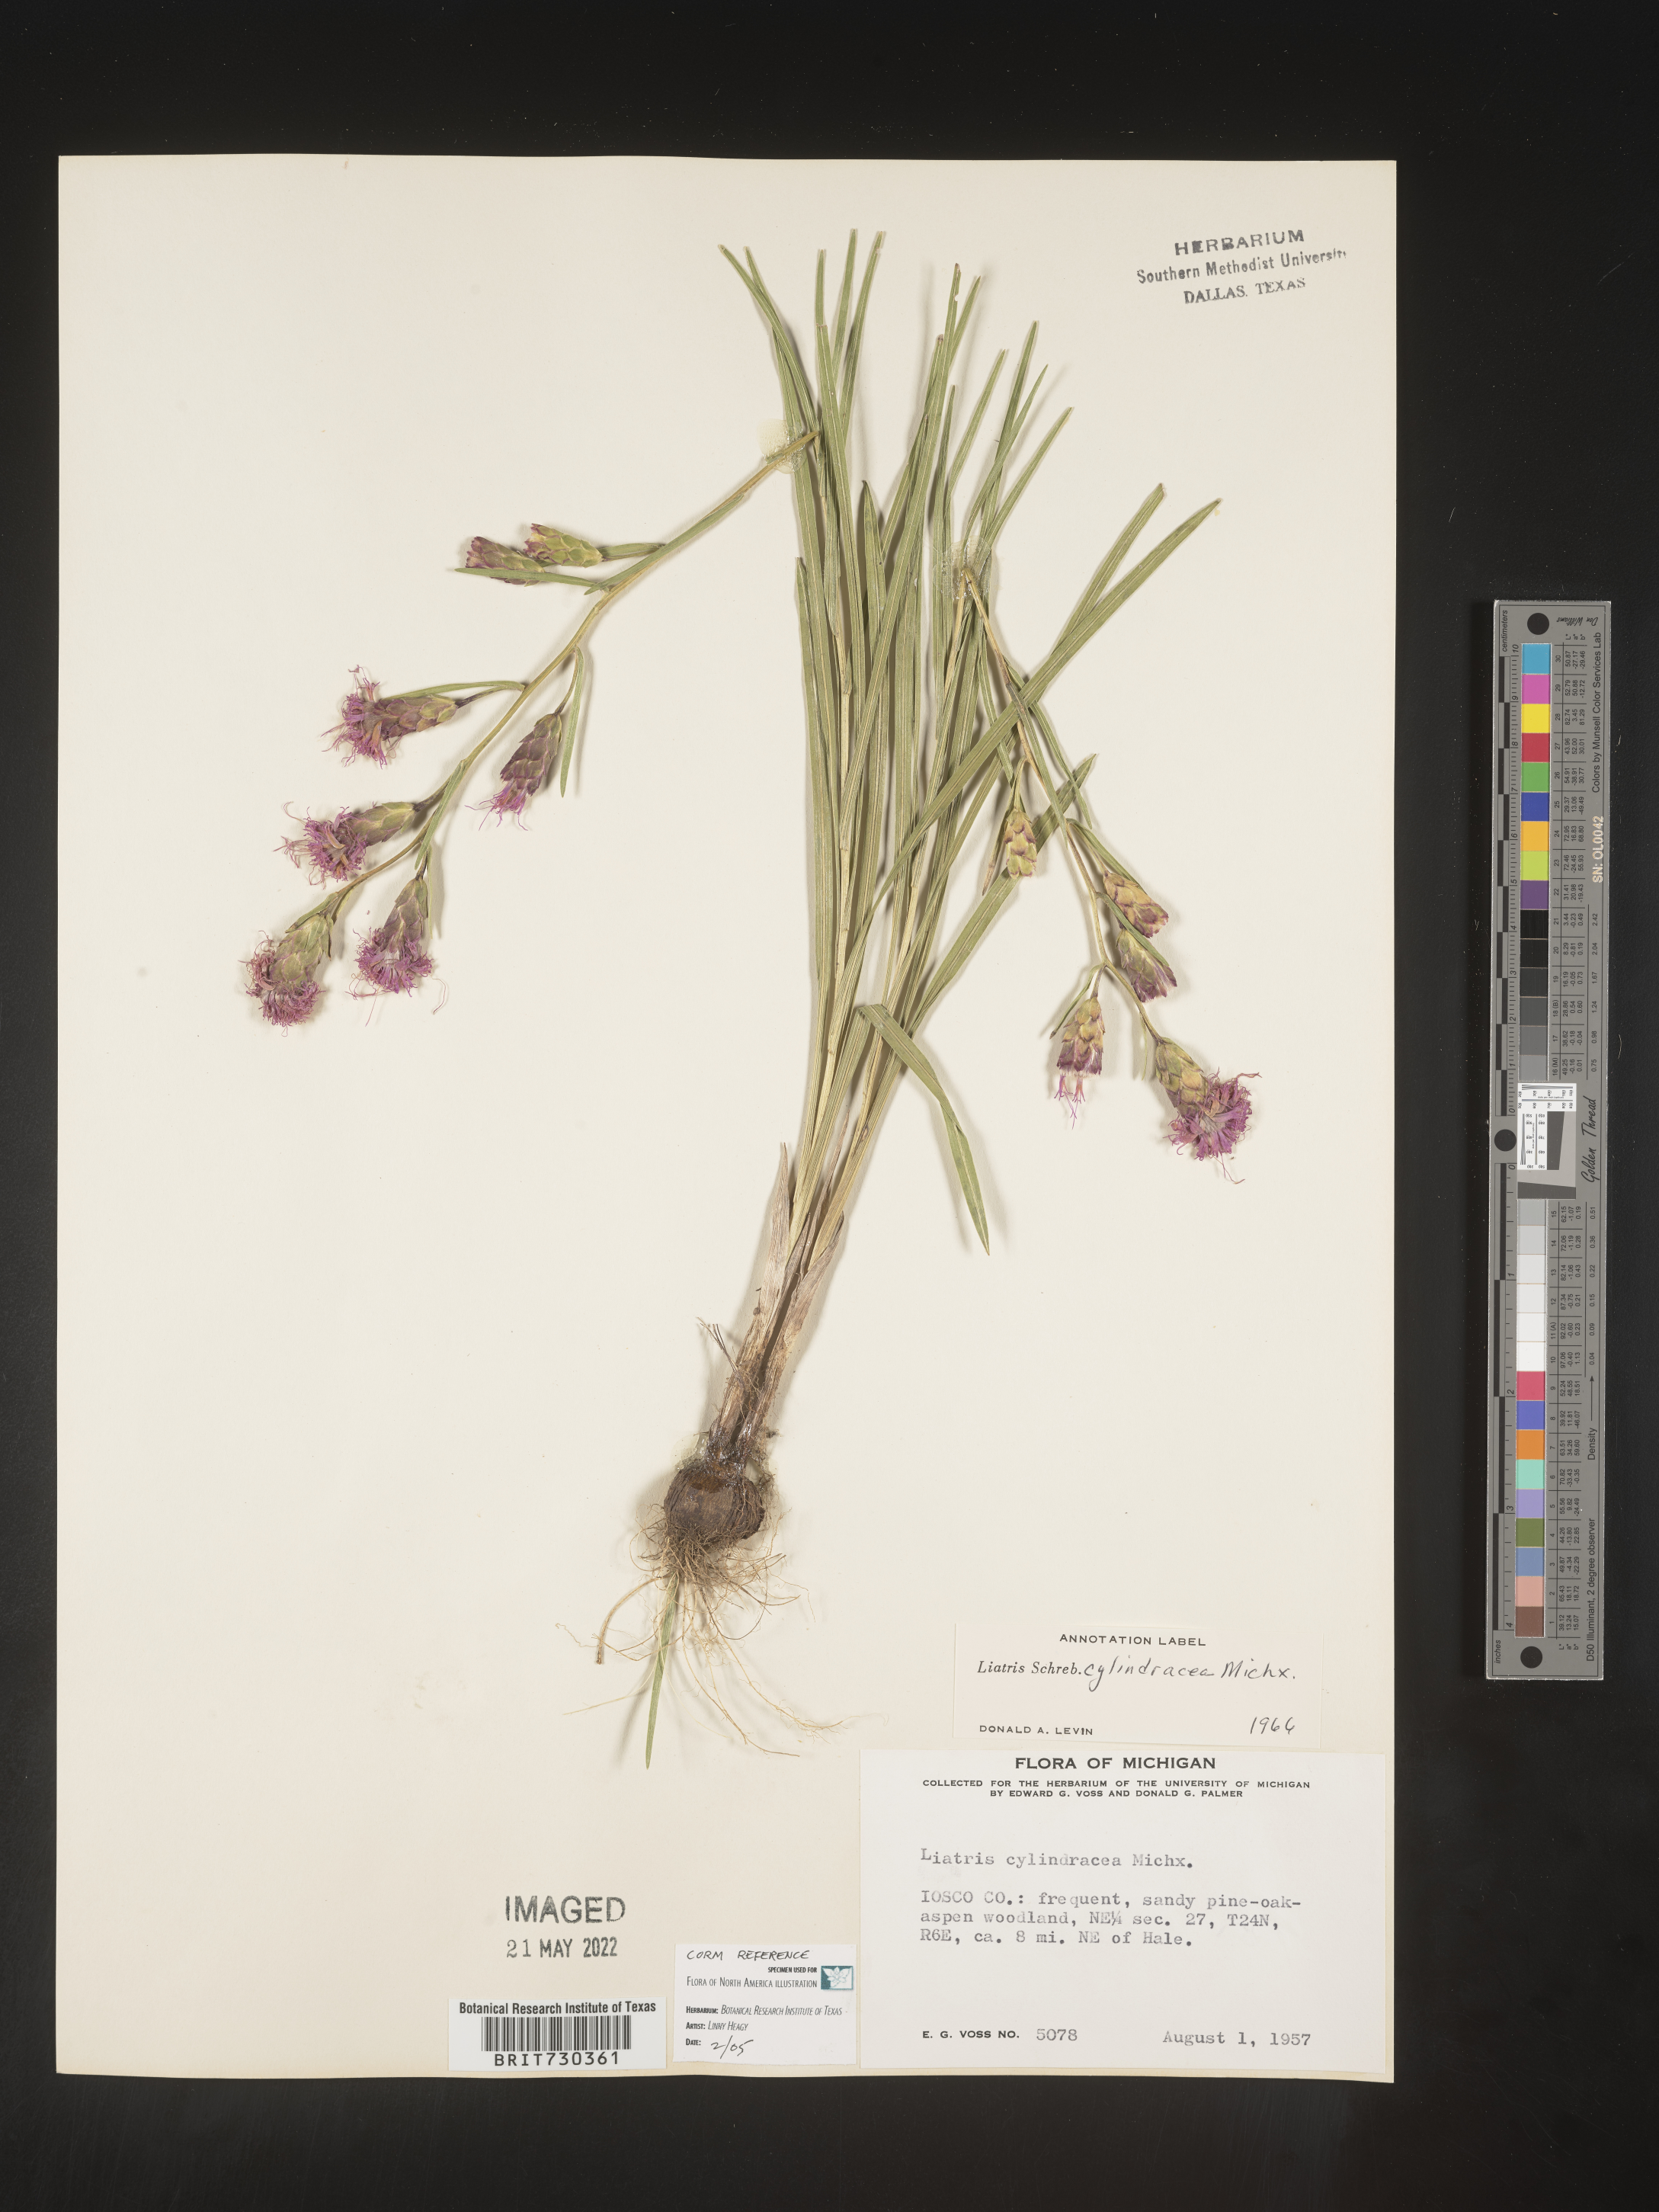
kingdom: Plantae
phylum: Tracheophyta
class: Magnoliopsida
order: Asterales
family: Asteraceae
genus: Liatris
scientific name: Liatris cylindracea
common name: Few-head blazingstar
